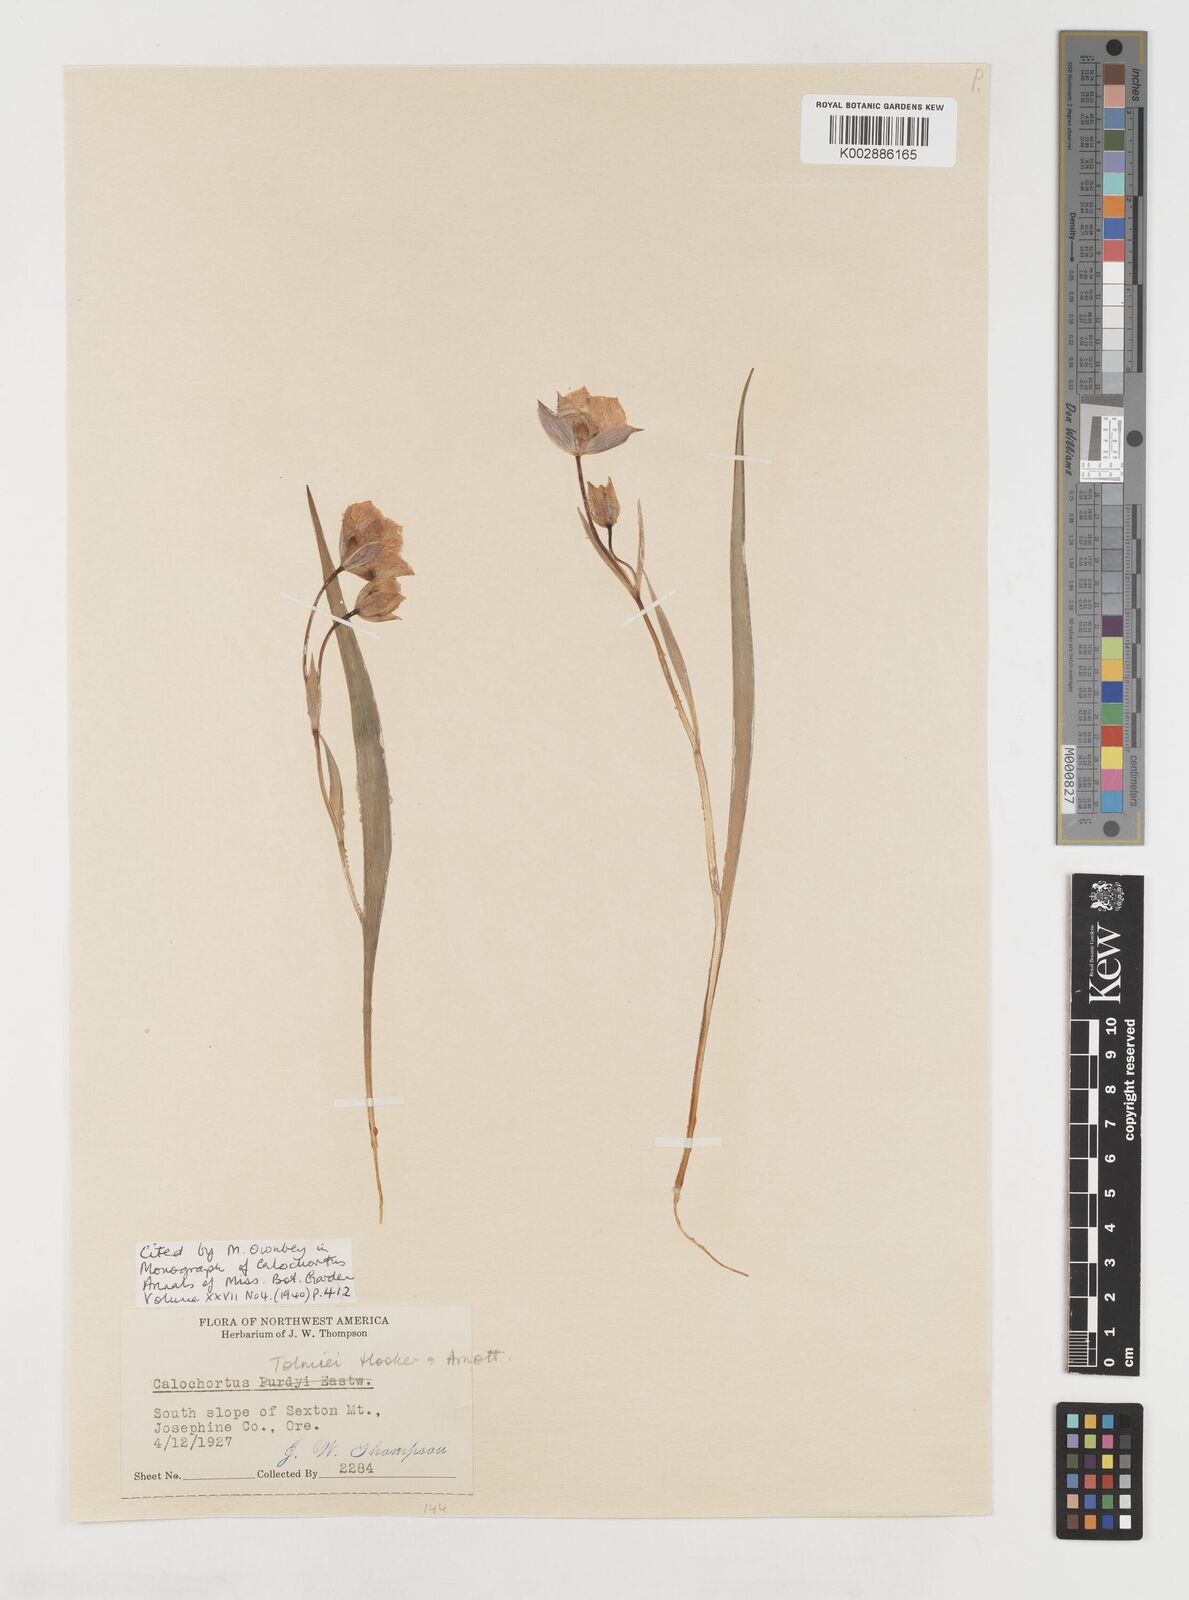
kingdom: Plantae
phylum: Tracheophyta
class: Liliopsida
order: Liliales
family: Liliaceae
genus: Calochortus
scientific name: Calochortus tolmiei
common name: Pussy-ears
